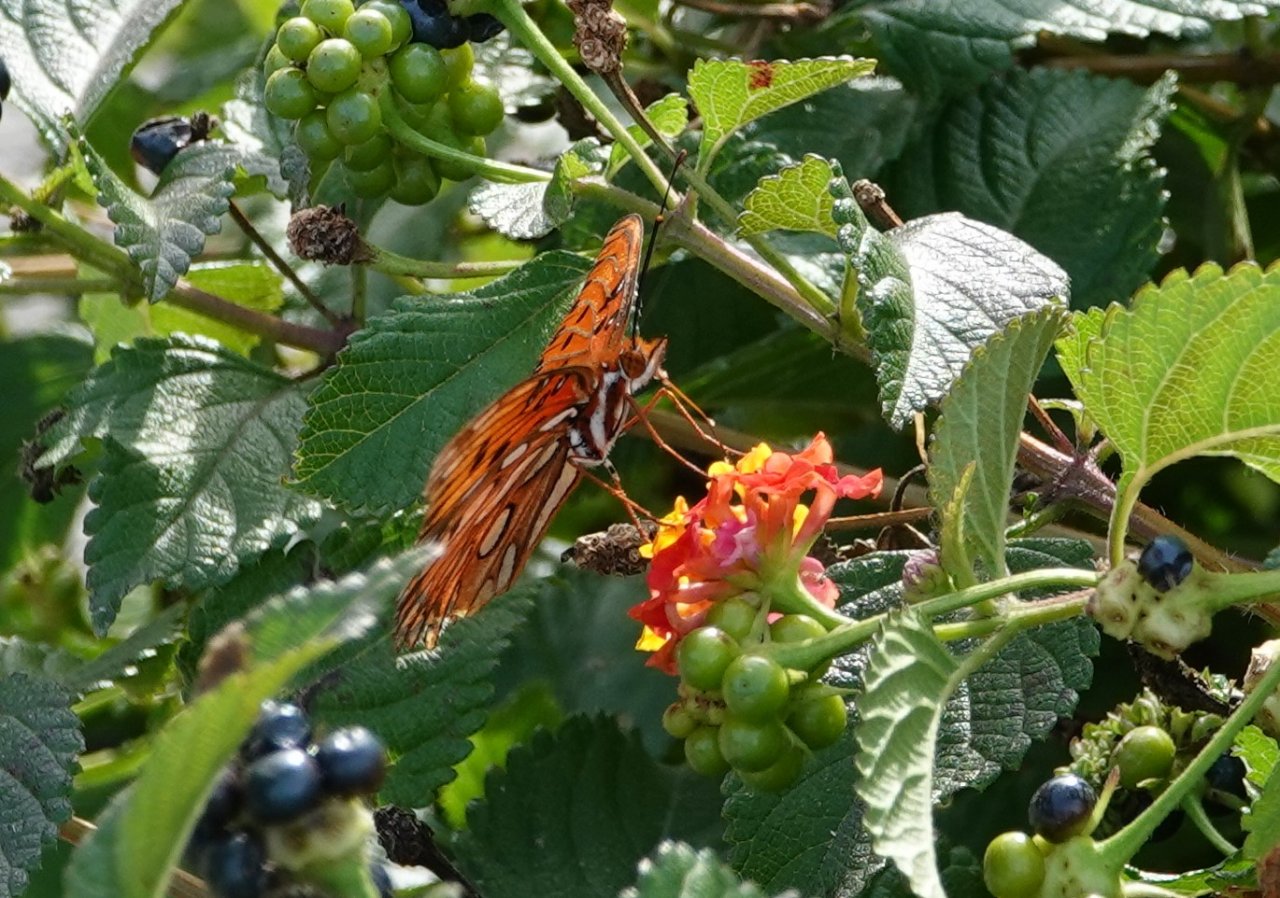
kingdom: Animalia
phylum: Arthropoda
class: Insecta
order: Lepidoptera
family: Nymphalidae
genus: Dione
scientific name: Dione vanillae
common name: Gulf Fritillary
